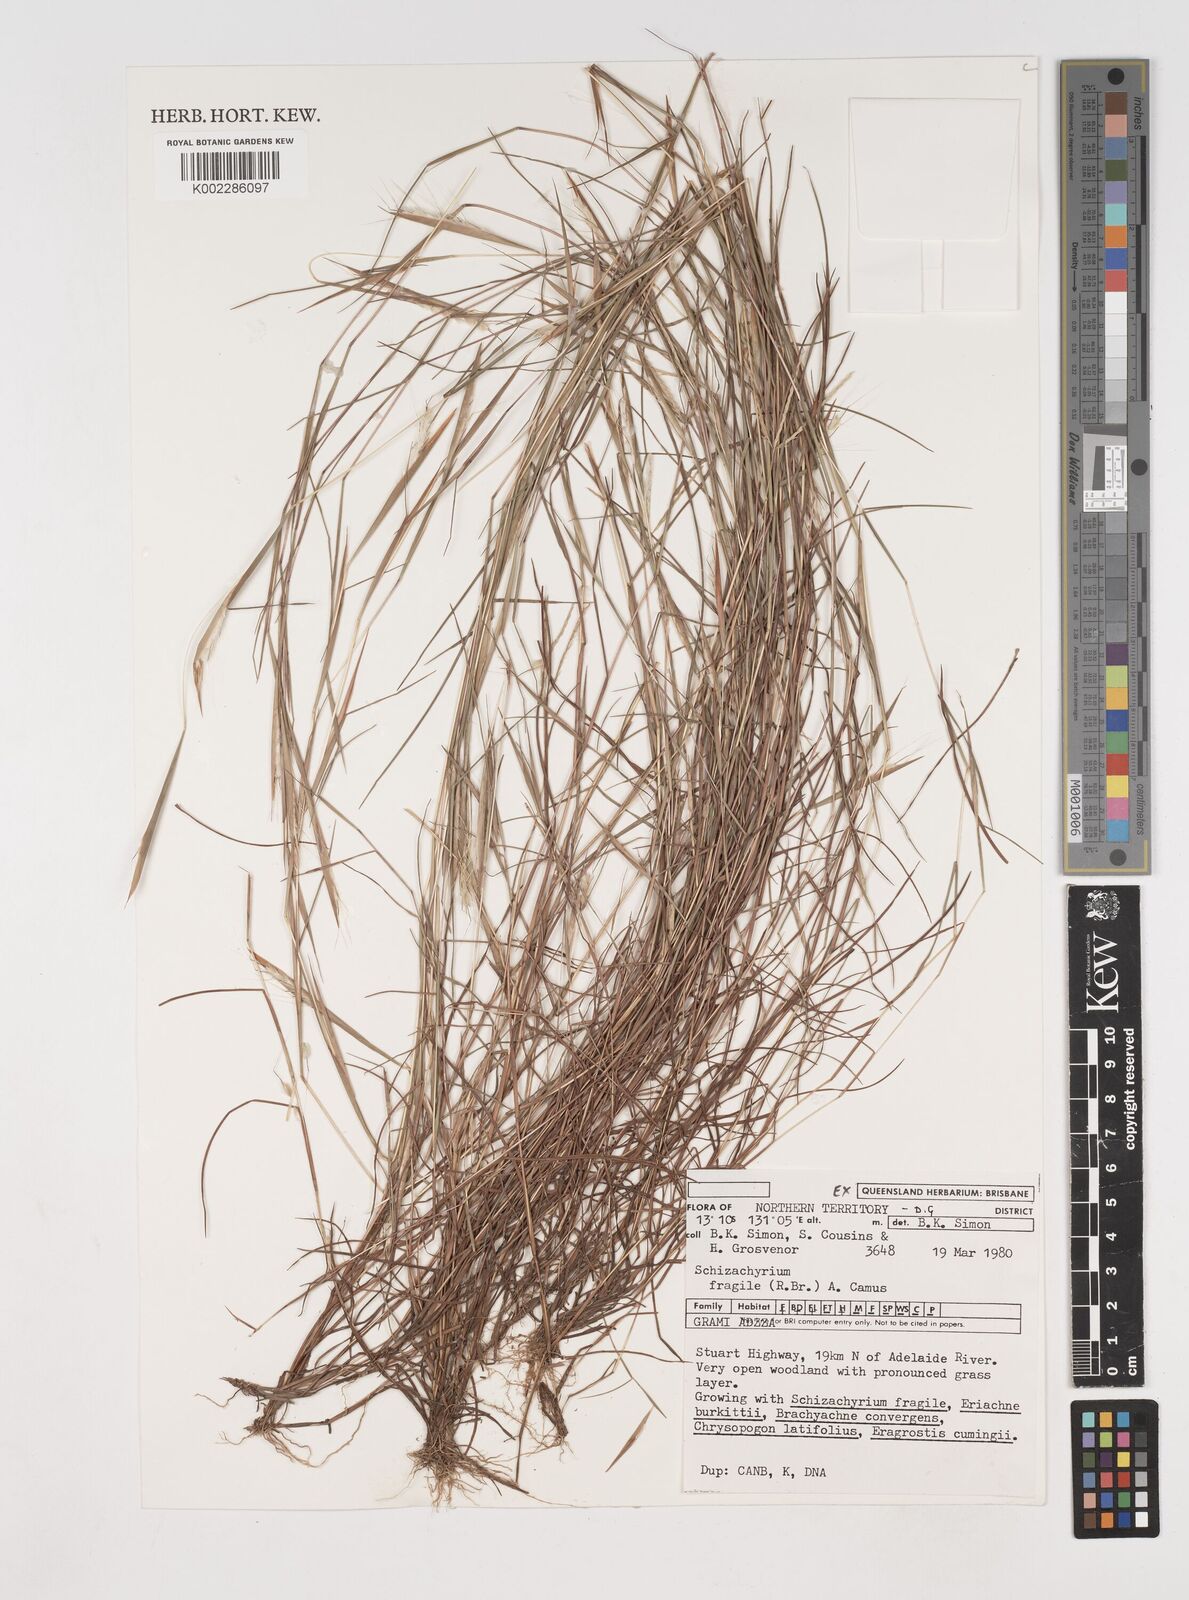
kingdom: Plantae
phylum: Tracheophyta
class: Liliopsida
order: Poales
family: Poaceae
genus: Schizachyrium
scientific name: Schizachyrium fragile
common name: Red spathe grass
